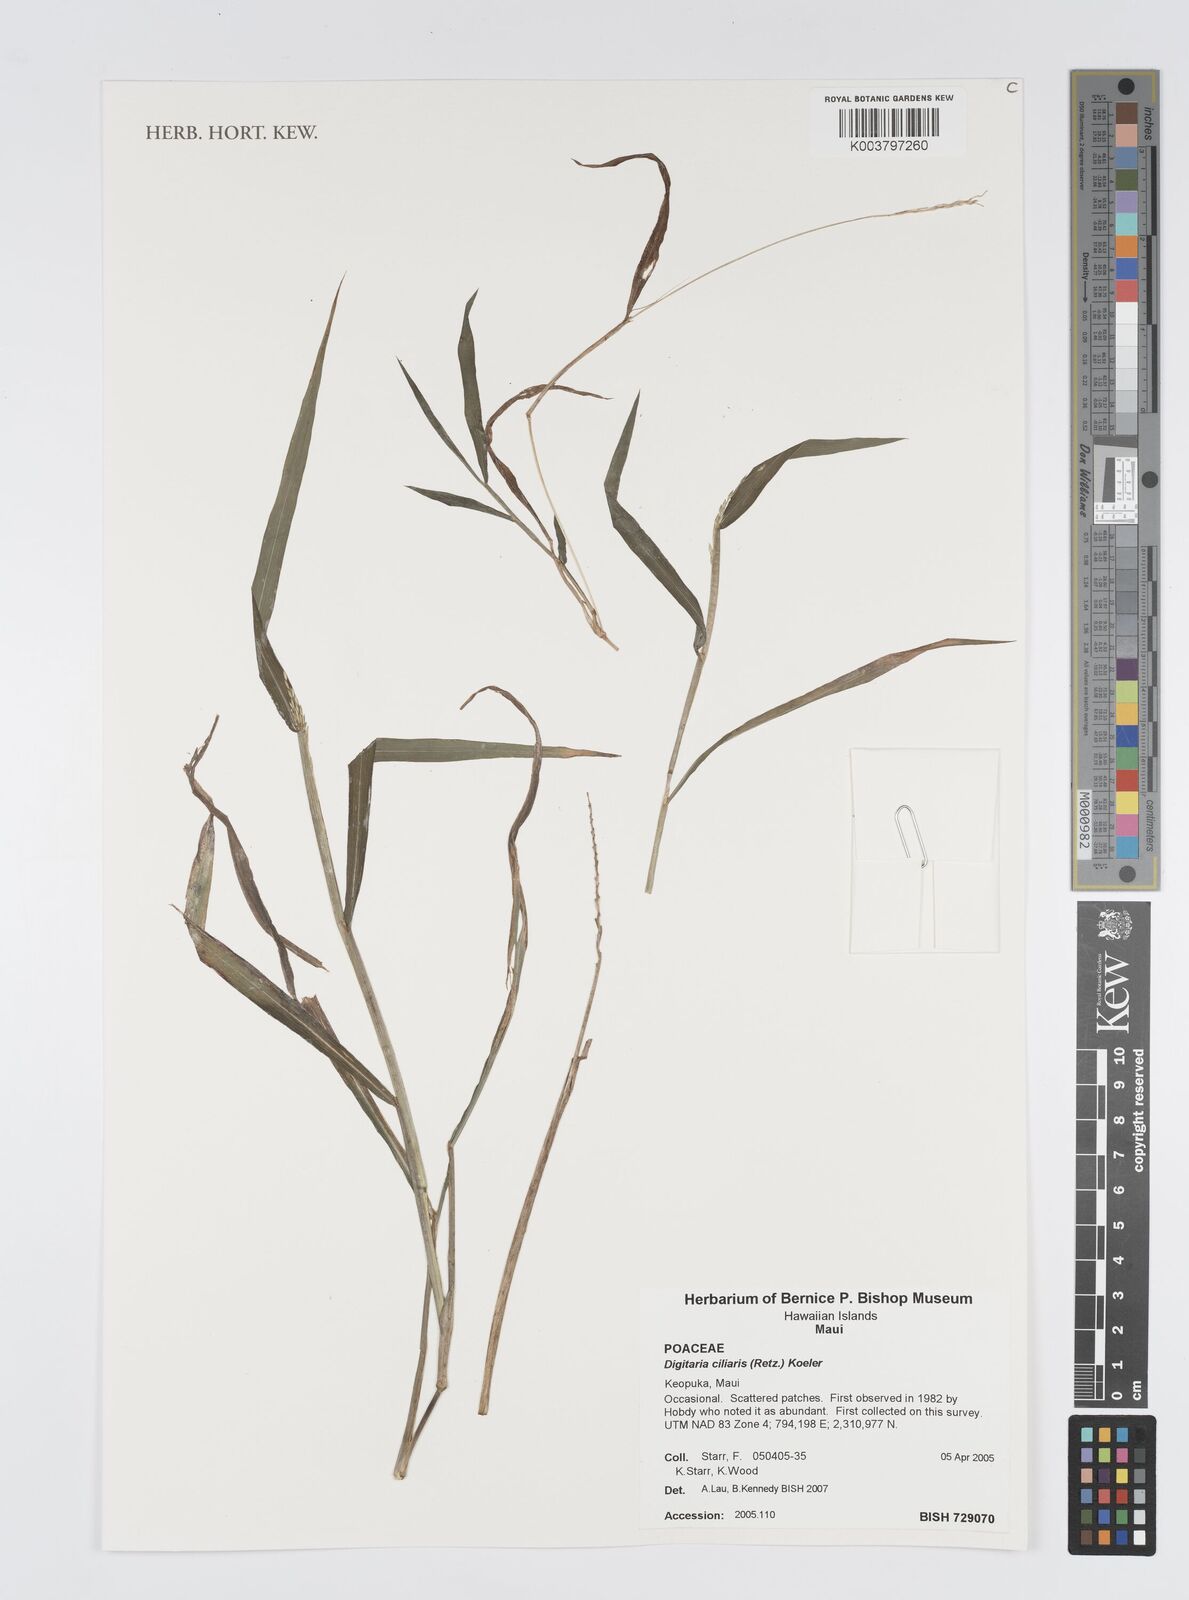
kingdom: Plantae
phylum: Tracheophyta
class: Liliopsida
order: Poales
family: Poaceae
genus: Digitaria
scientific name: Digitaria ciliaris
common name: Tropical finger-grass
